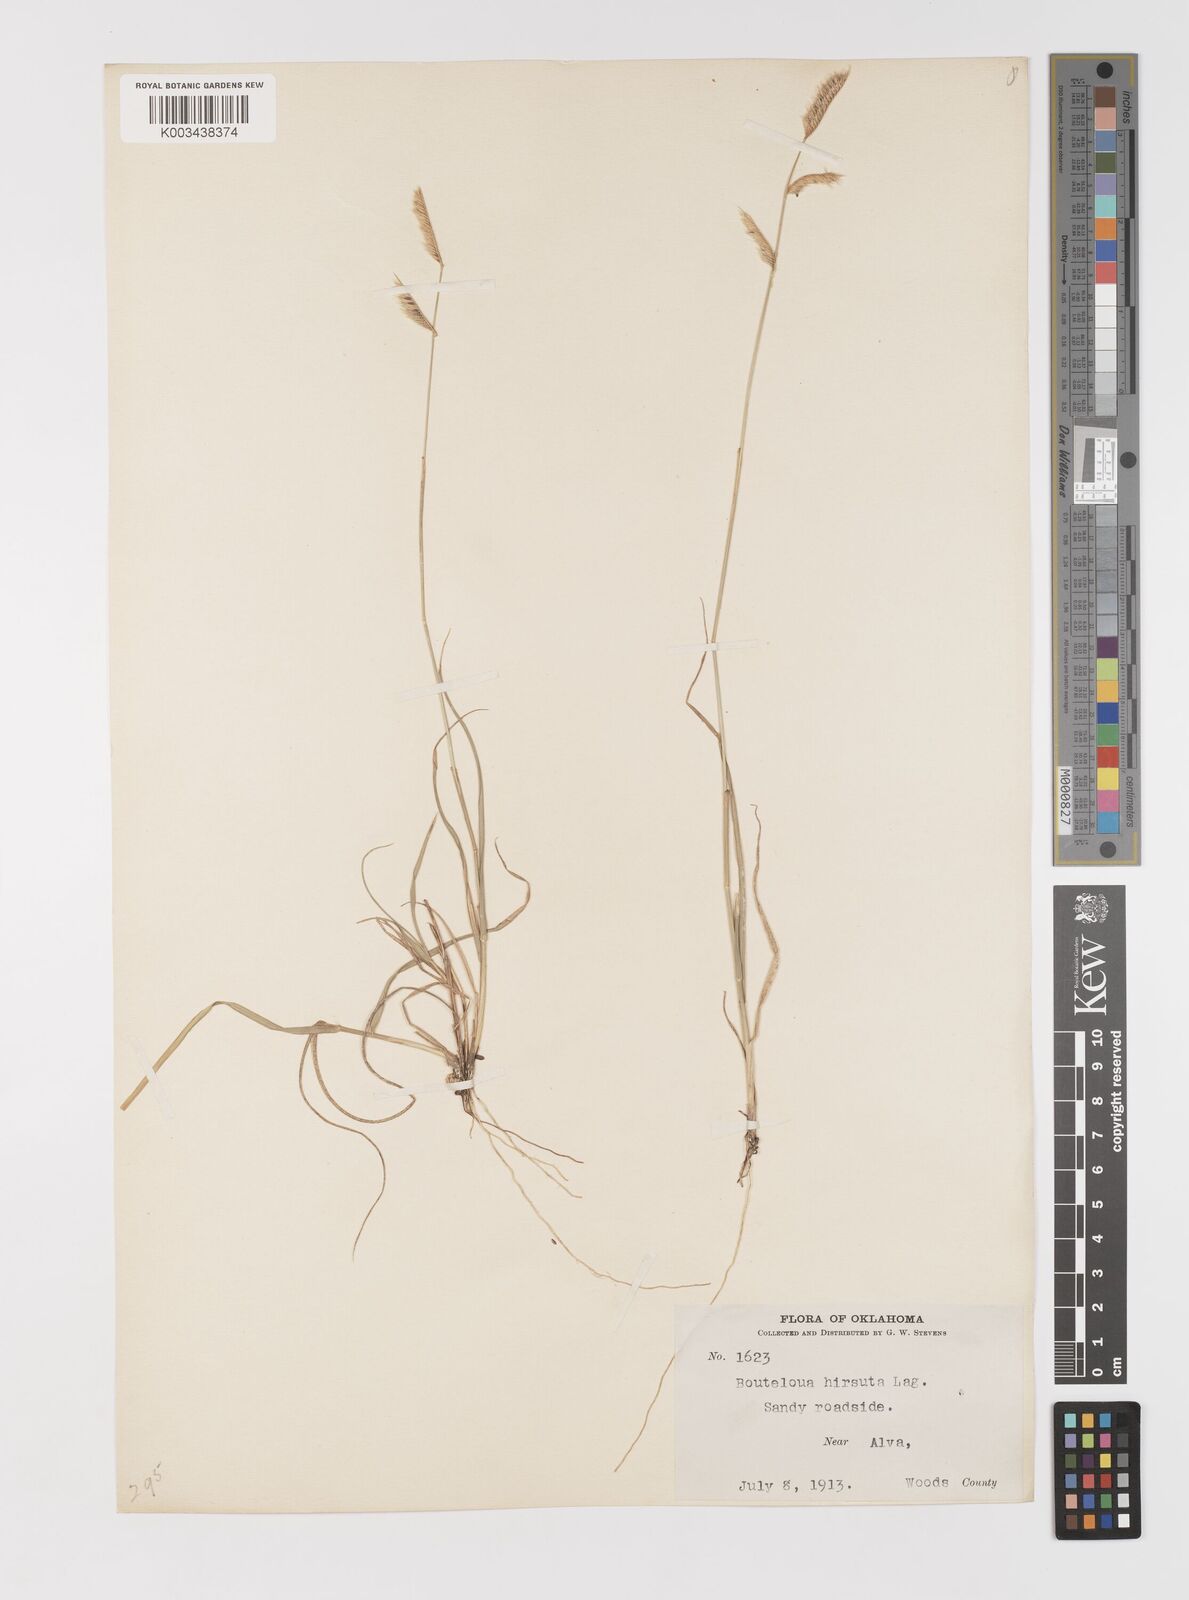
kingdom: Plantae
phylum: Tracheophyta
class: Liliopsida
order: Poales
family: Poaceae
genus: Bouteloua
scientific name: Bouteloua hirsuta
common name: Hairy grama
